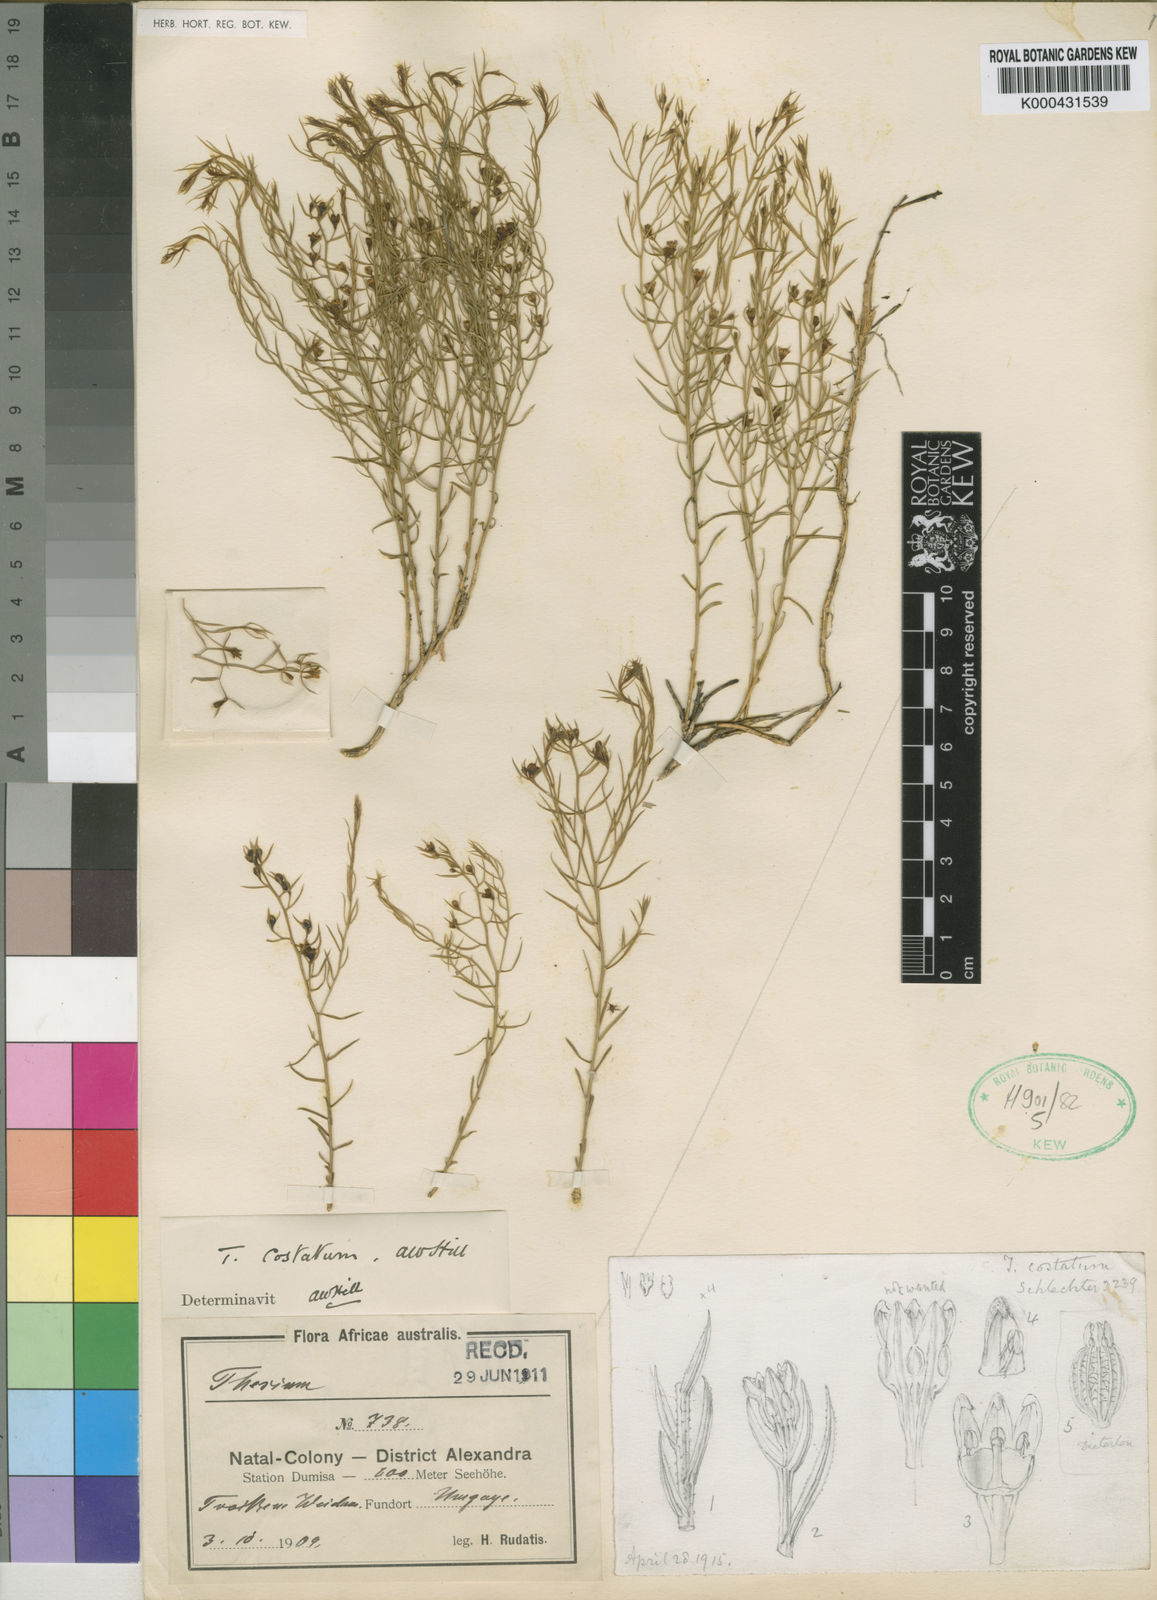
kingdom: Plantae
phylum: Tracheophyta
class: Magnoliopsida
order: Santalales
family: Thesiaceae
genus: Thesium
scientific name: Thesium costatum
